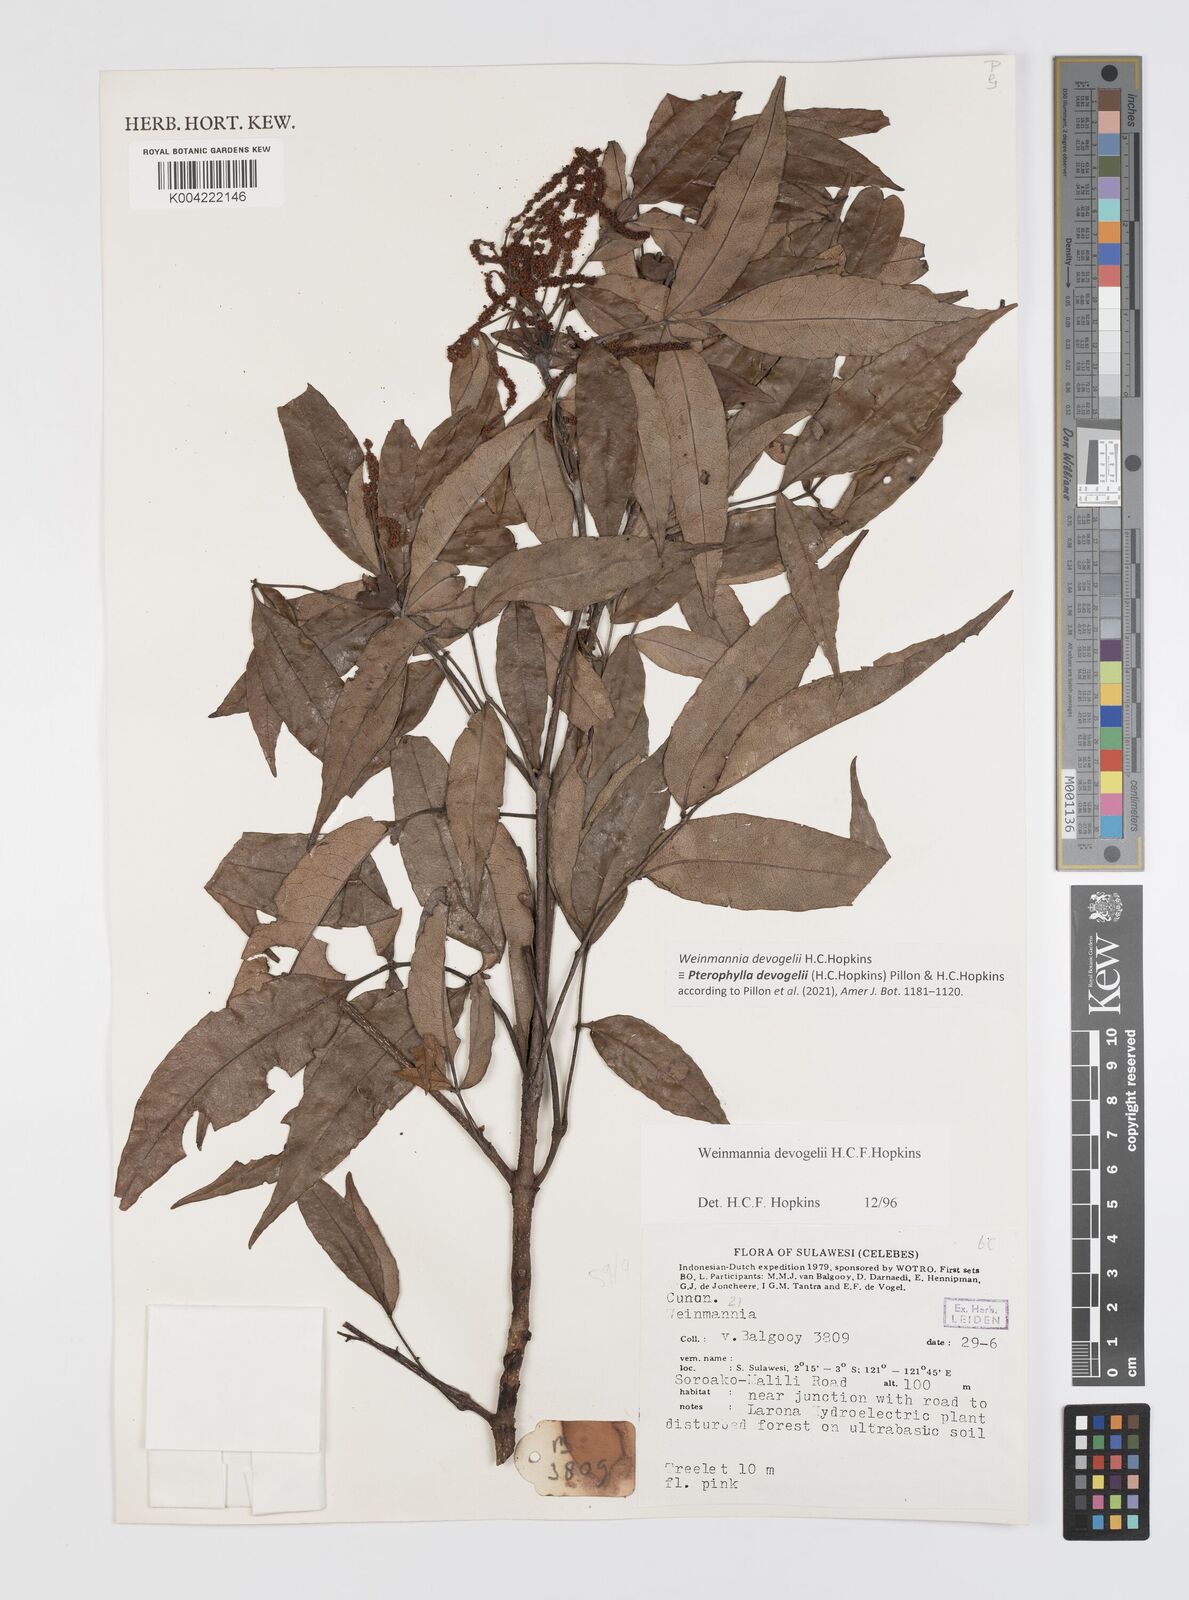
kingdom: Plantae
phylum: Tracheophyta
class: Magnoliopsida
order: Oxalidales
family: Cunoniaceae
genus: Pterophylla
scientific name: Pterophylla devogelii
